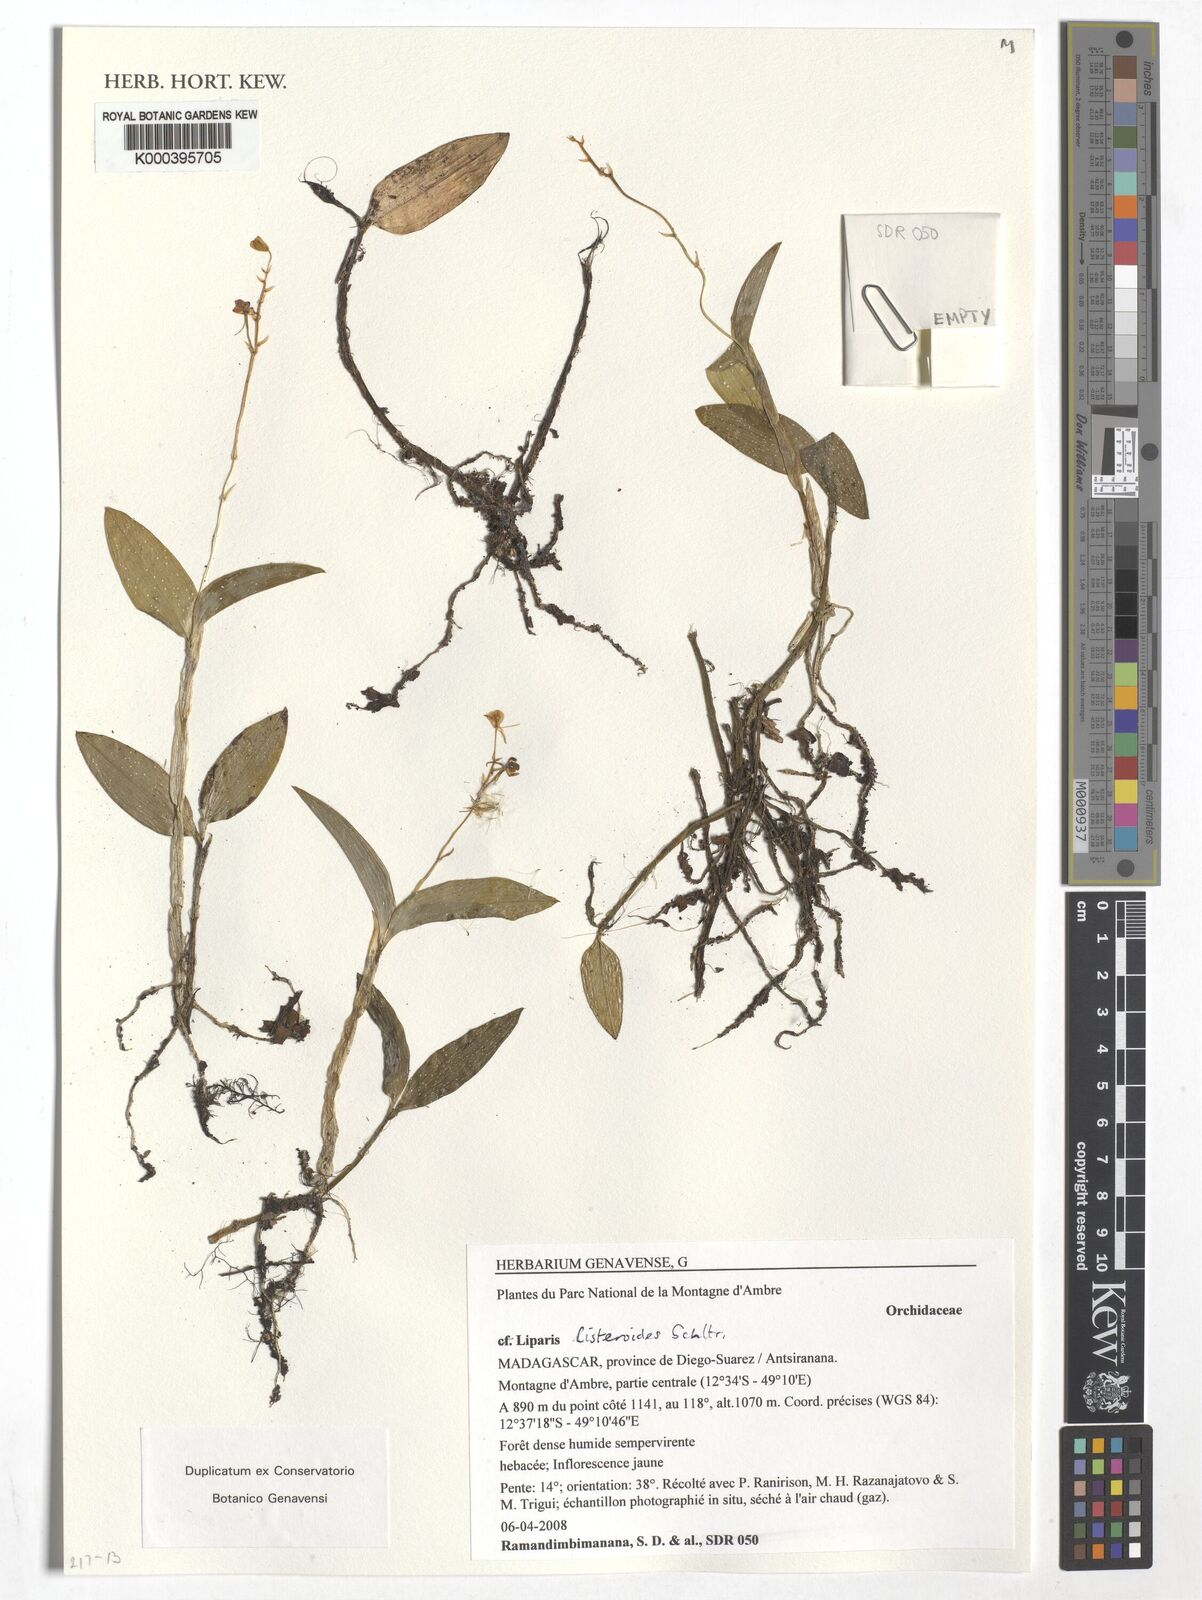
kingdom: Plantae
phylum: Tracheophyta
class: Liliopsida
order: Asparagales
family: Orchidaceae
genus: Liparis
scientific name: Liparis listeroides
